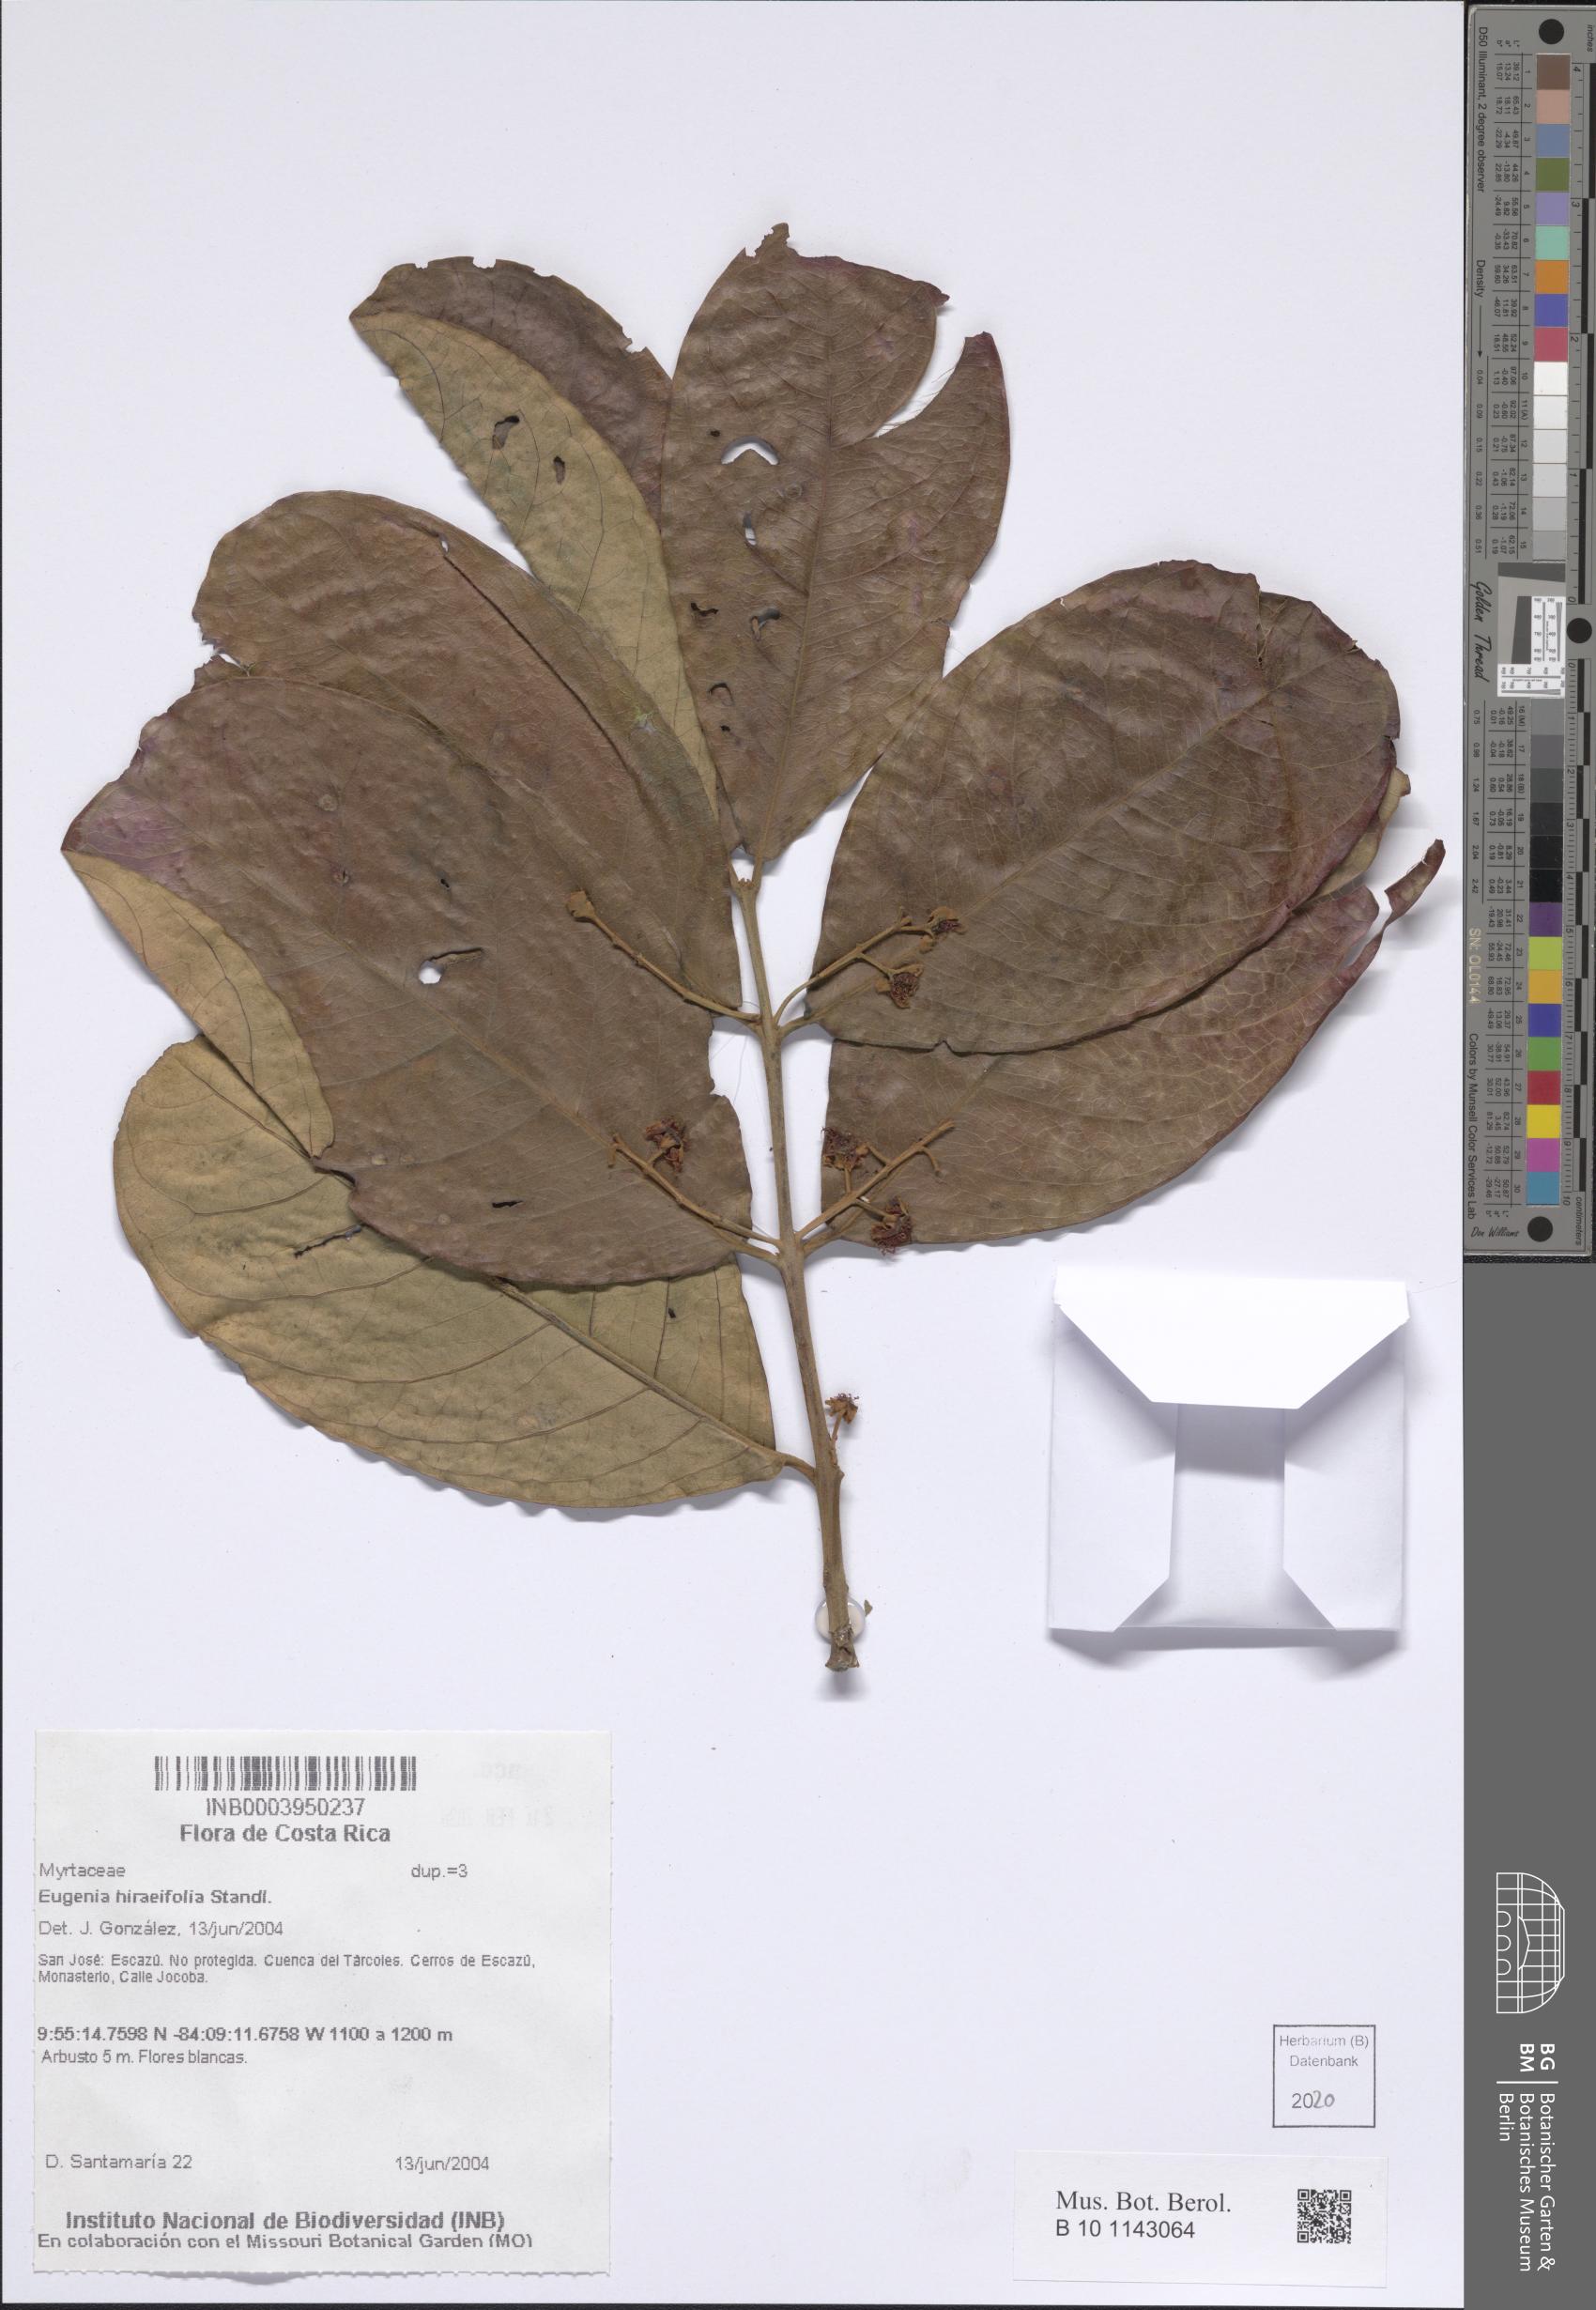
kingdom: Plantae
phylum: Tracheophyta
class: Magnoliopsida
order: Myrtales
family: Myrtaceae
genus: Eugenia
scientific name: Eugenia hiraeifolia
